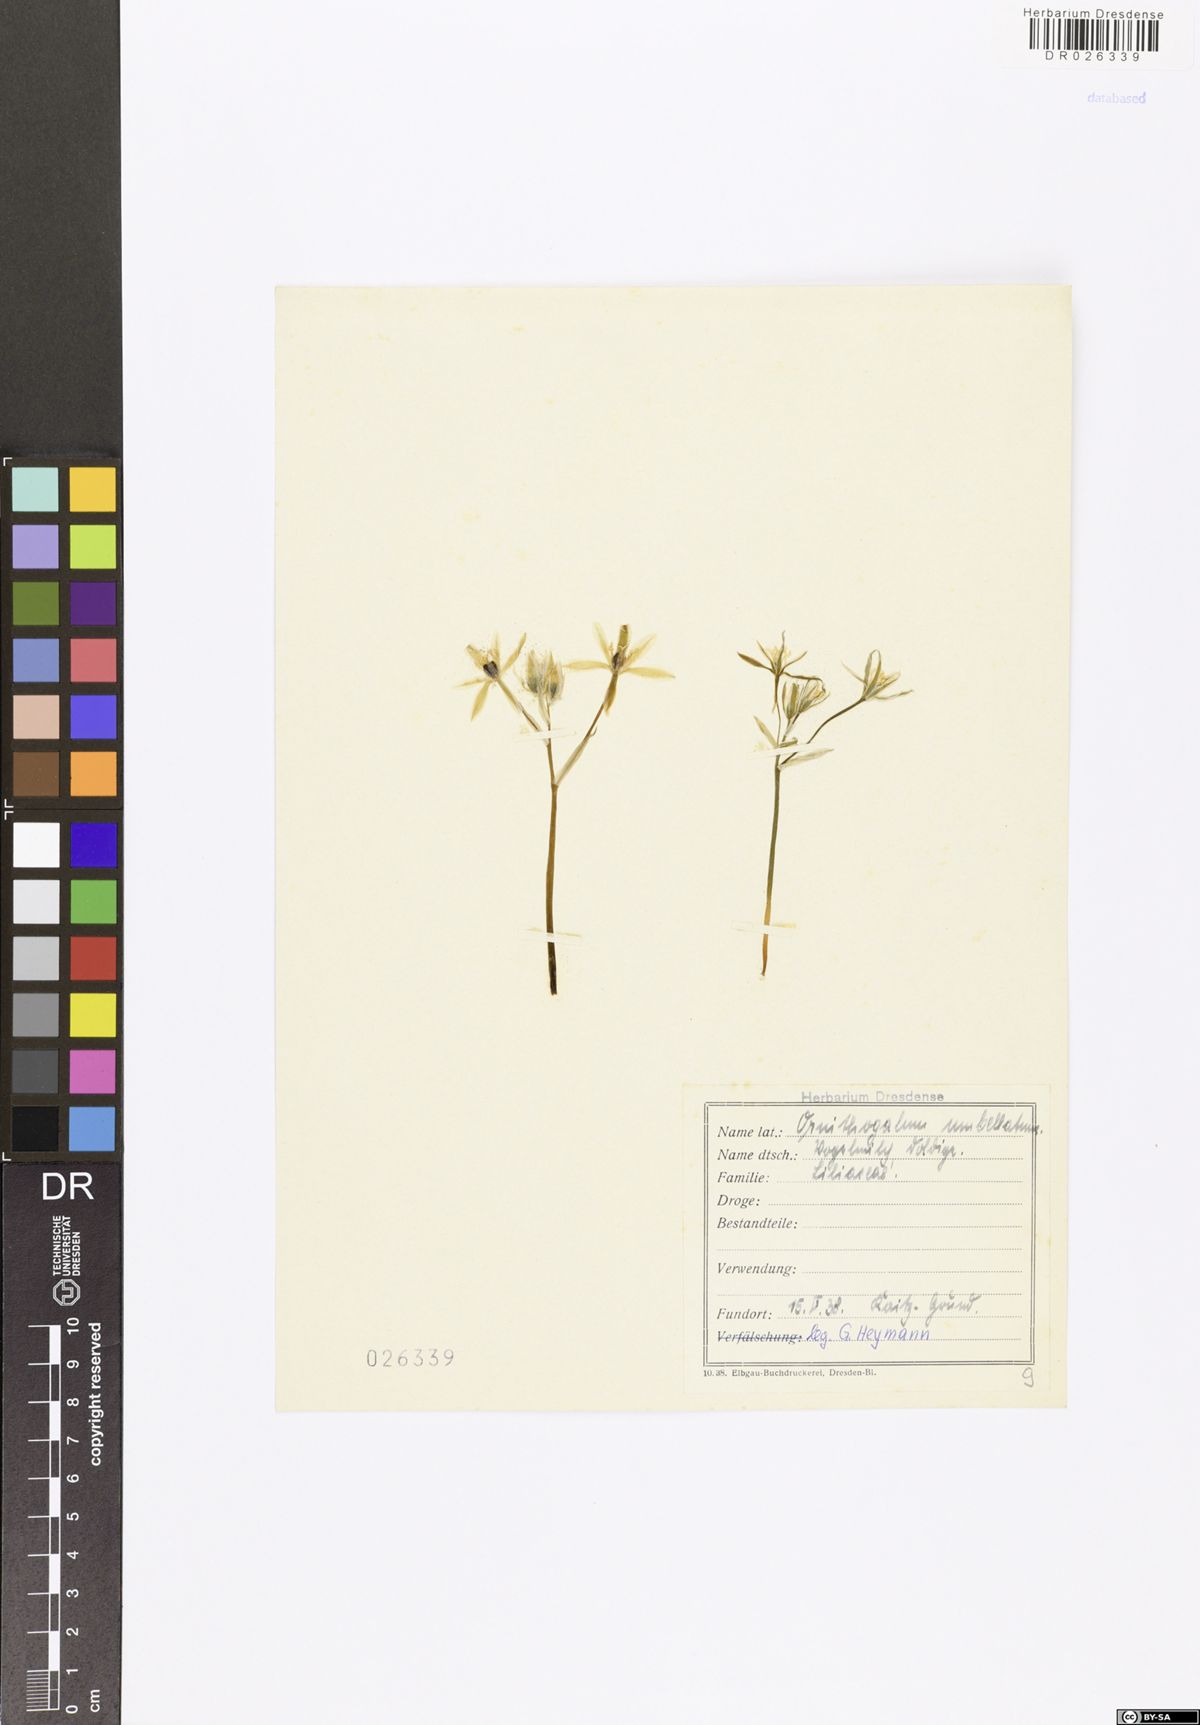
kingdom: Plantae
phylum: Tracheophyta
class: Liliopsida
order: Asparagales
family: Asparagaceae
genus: Ornithogalum
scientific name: Ornithogalum umbellatum
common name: Garden star-of-bethlehem
